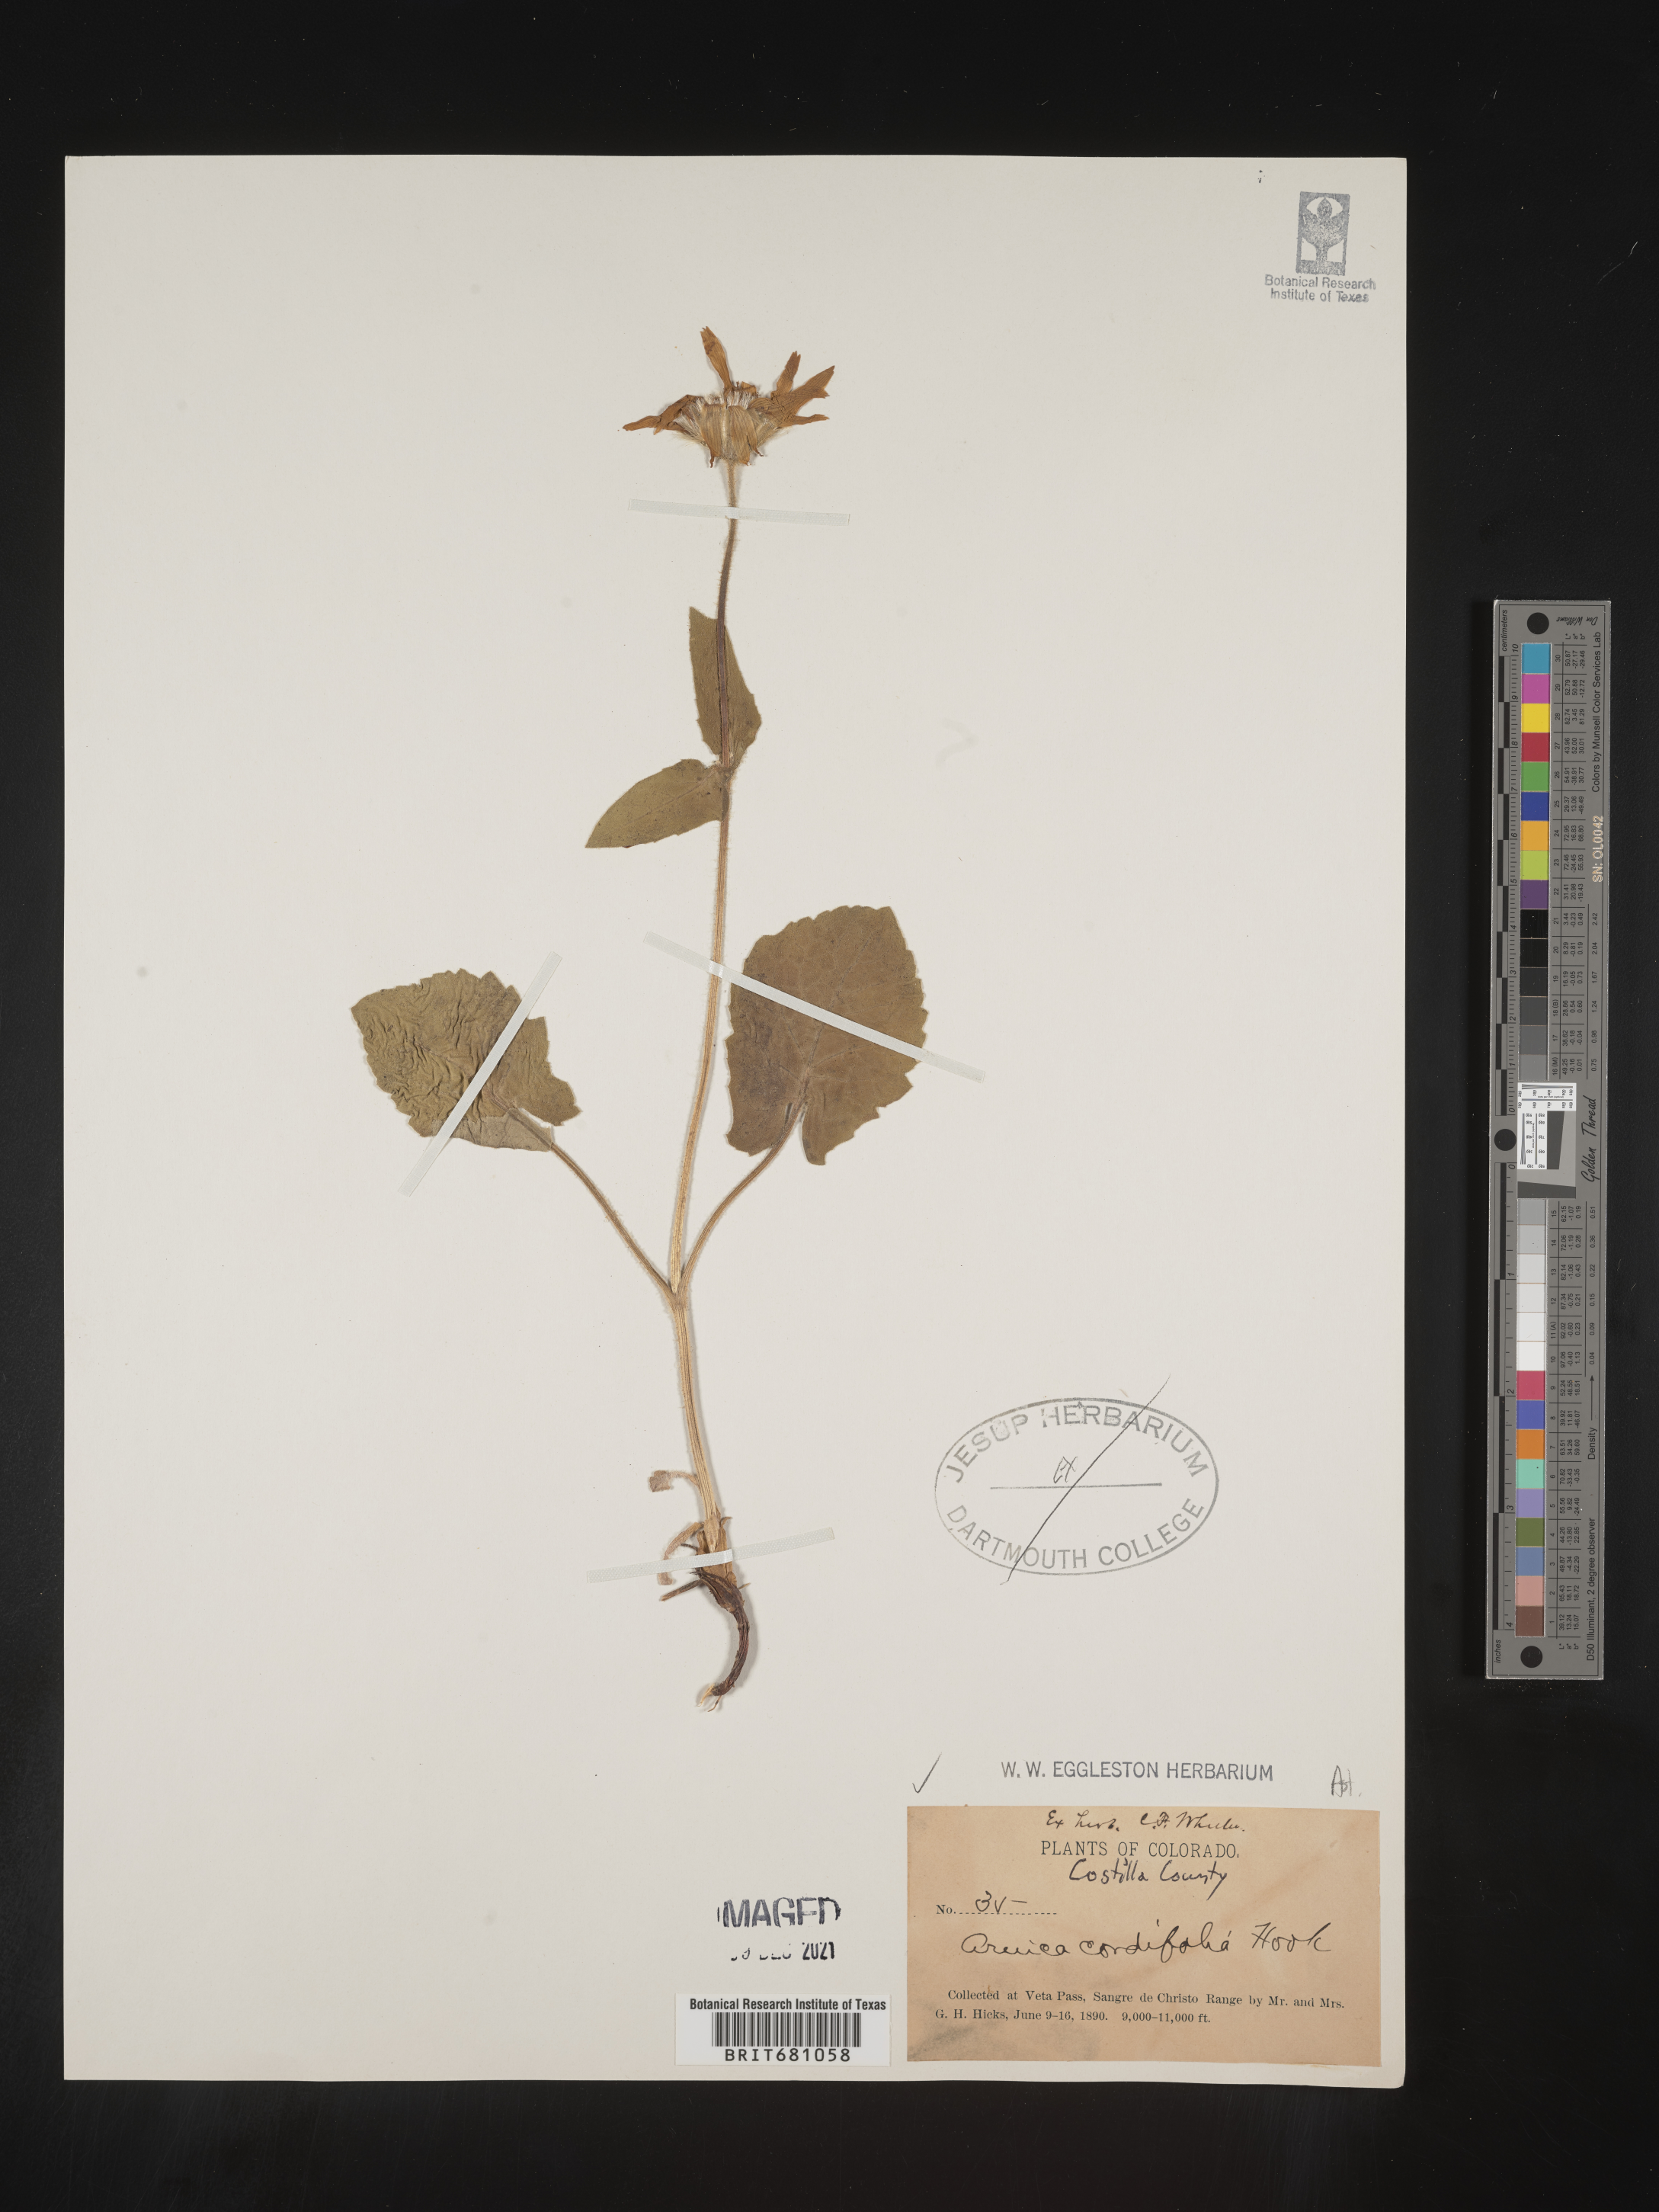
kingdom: Plantae
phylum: Tracheophyta
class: Magnoliopsida
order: Asterales
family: Asteraceae
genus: Arnica
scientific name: Arnica cordifolia
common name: Heart-leaf arnica
